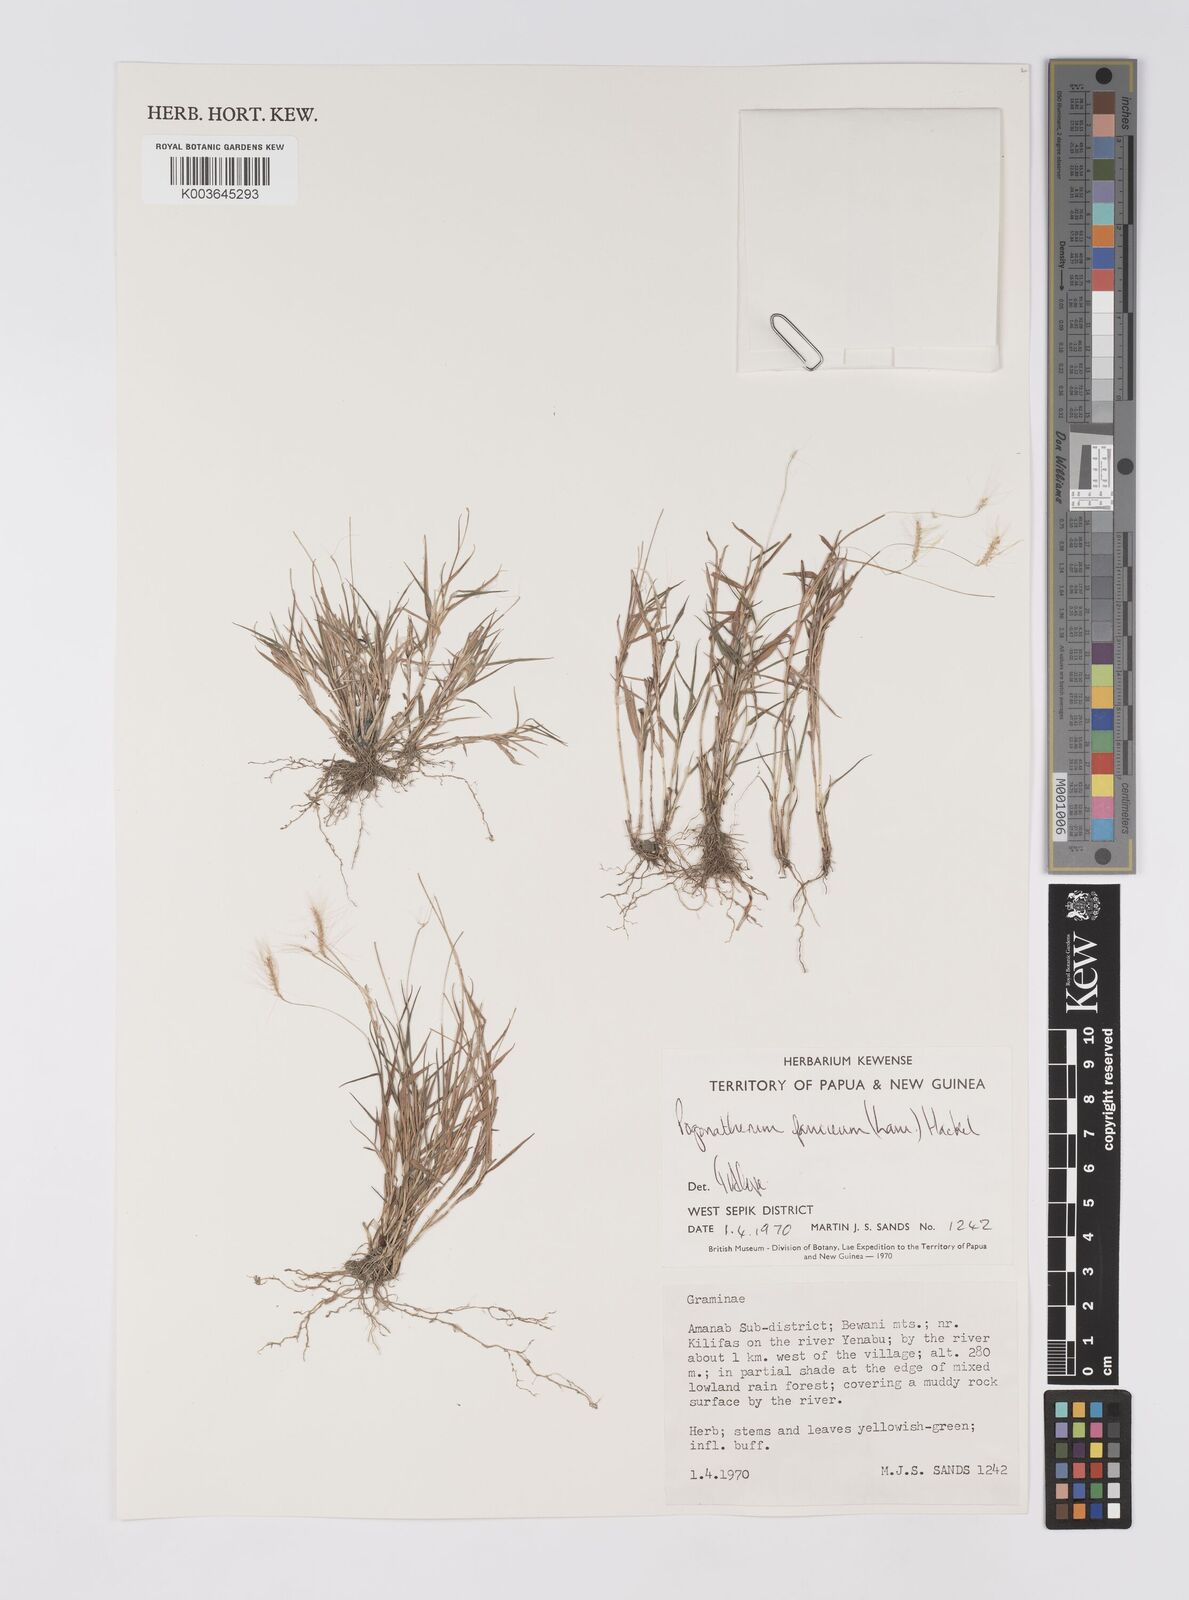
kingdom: Plantae
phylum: Tracheophyta
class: Liliopsida
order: Poales
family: Poaceae
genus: Pogonatherum
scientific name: Pogonatherum paniceum
